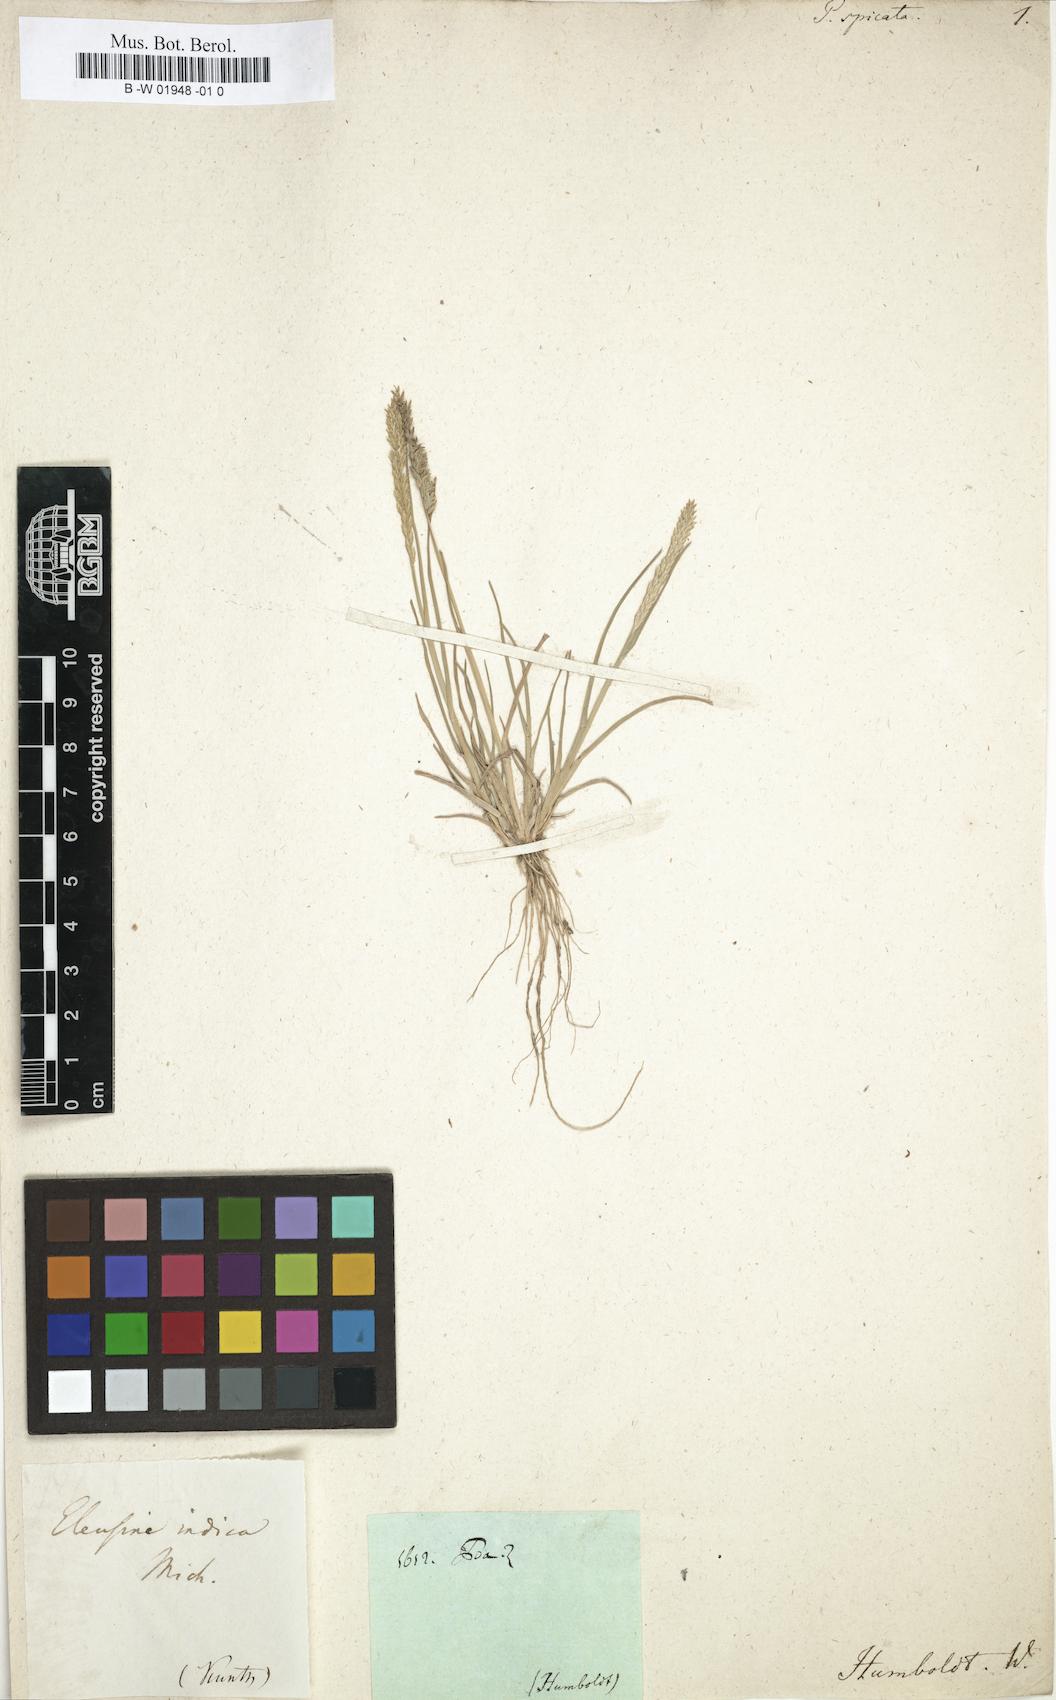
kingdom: Plantae
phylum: Tracheophyta
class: Liliopsida
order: Poales
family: Poaceae
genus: Poa
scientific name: Poa spicata
